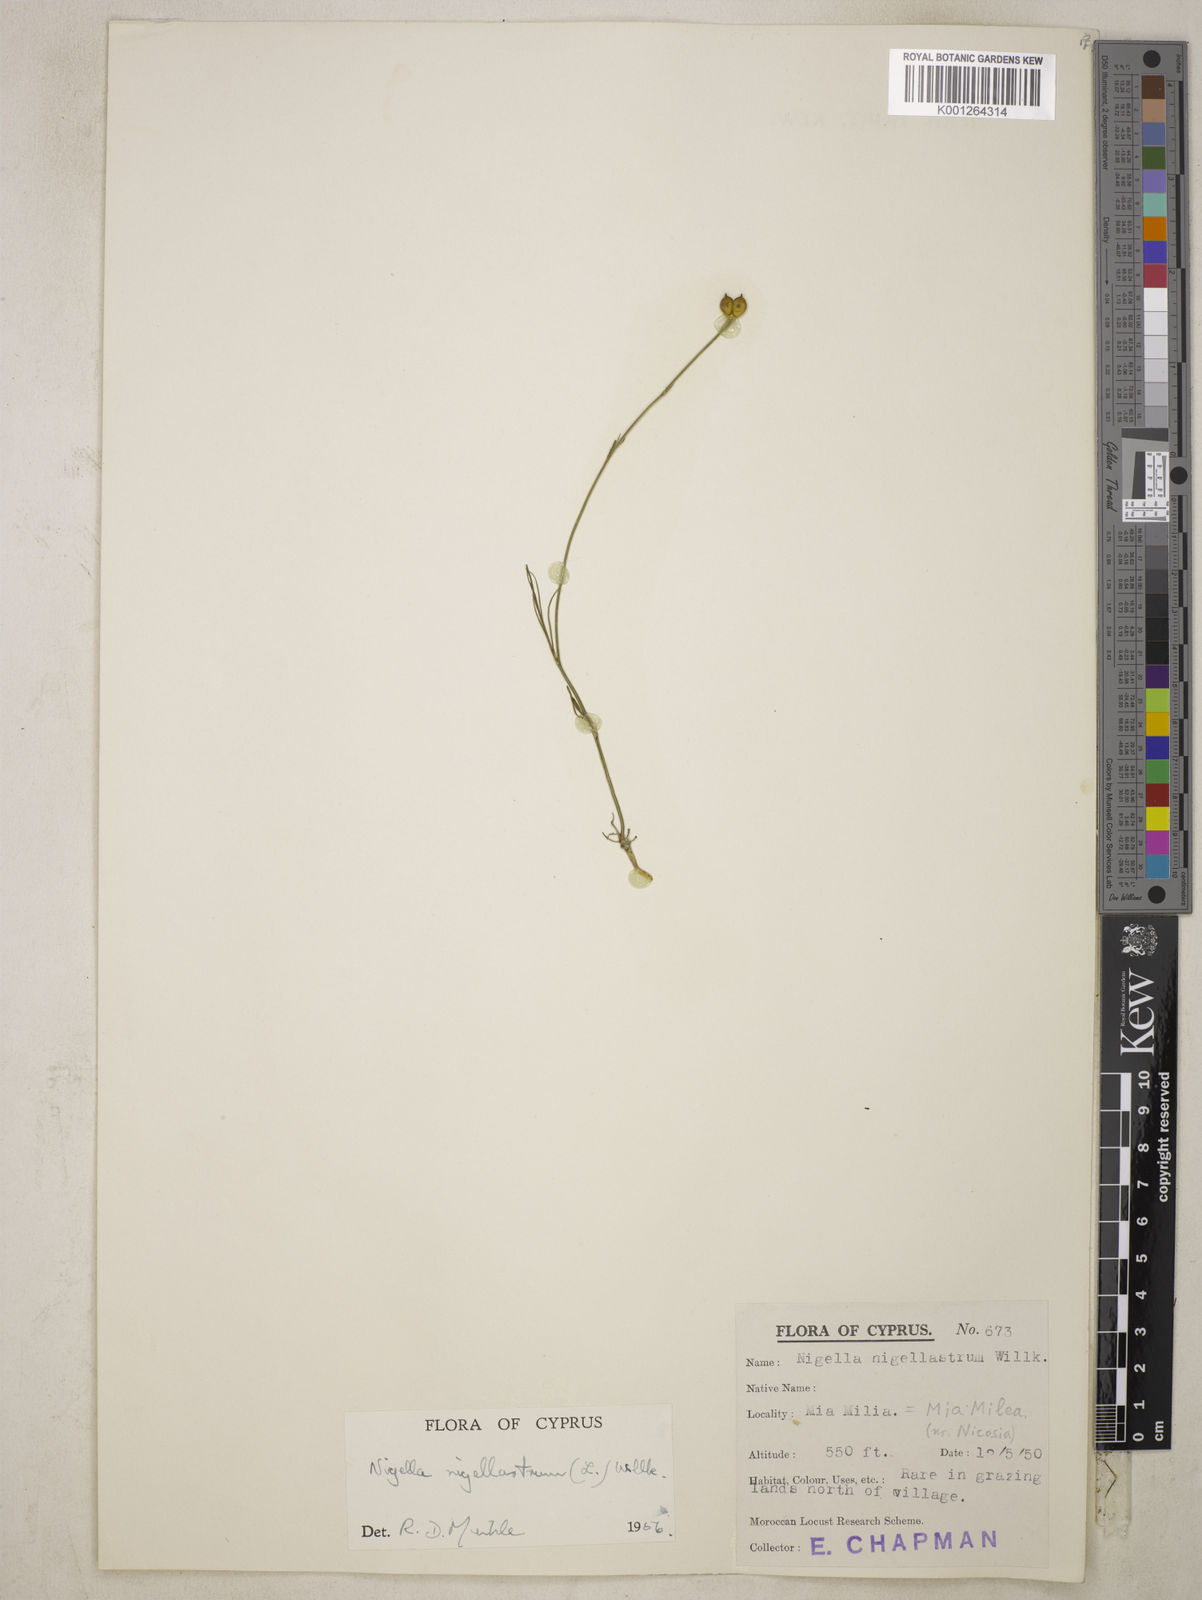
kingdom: Plantae
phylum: Tracheophyta
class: Magnoliopsida
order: Ranunculales
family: Ranunculaceae
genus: Garidella
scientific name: Garidella nigellastrum
